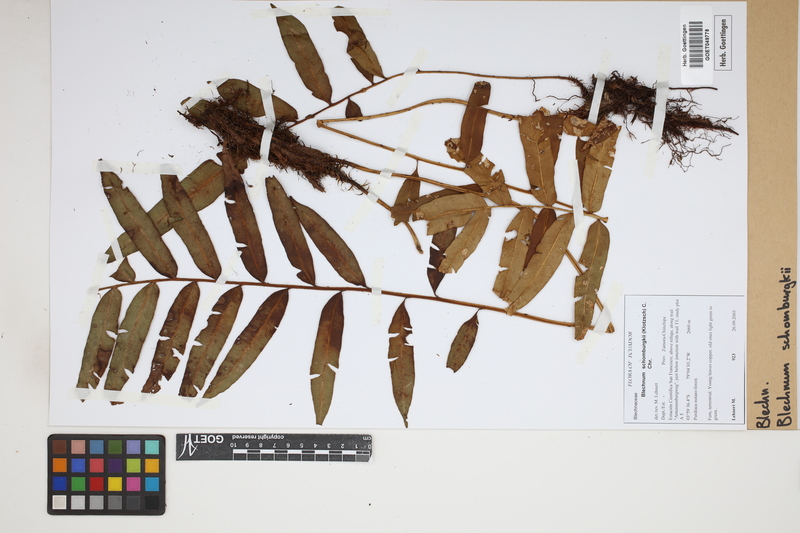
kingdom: Plantae
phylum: Tracheophyta
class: Polypodiopsida
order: Polypodiales
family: Blechnaceae
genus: Lomariocycas
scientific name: Lomariocycas schomburgkii
